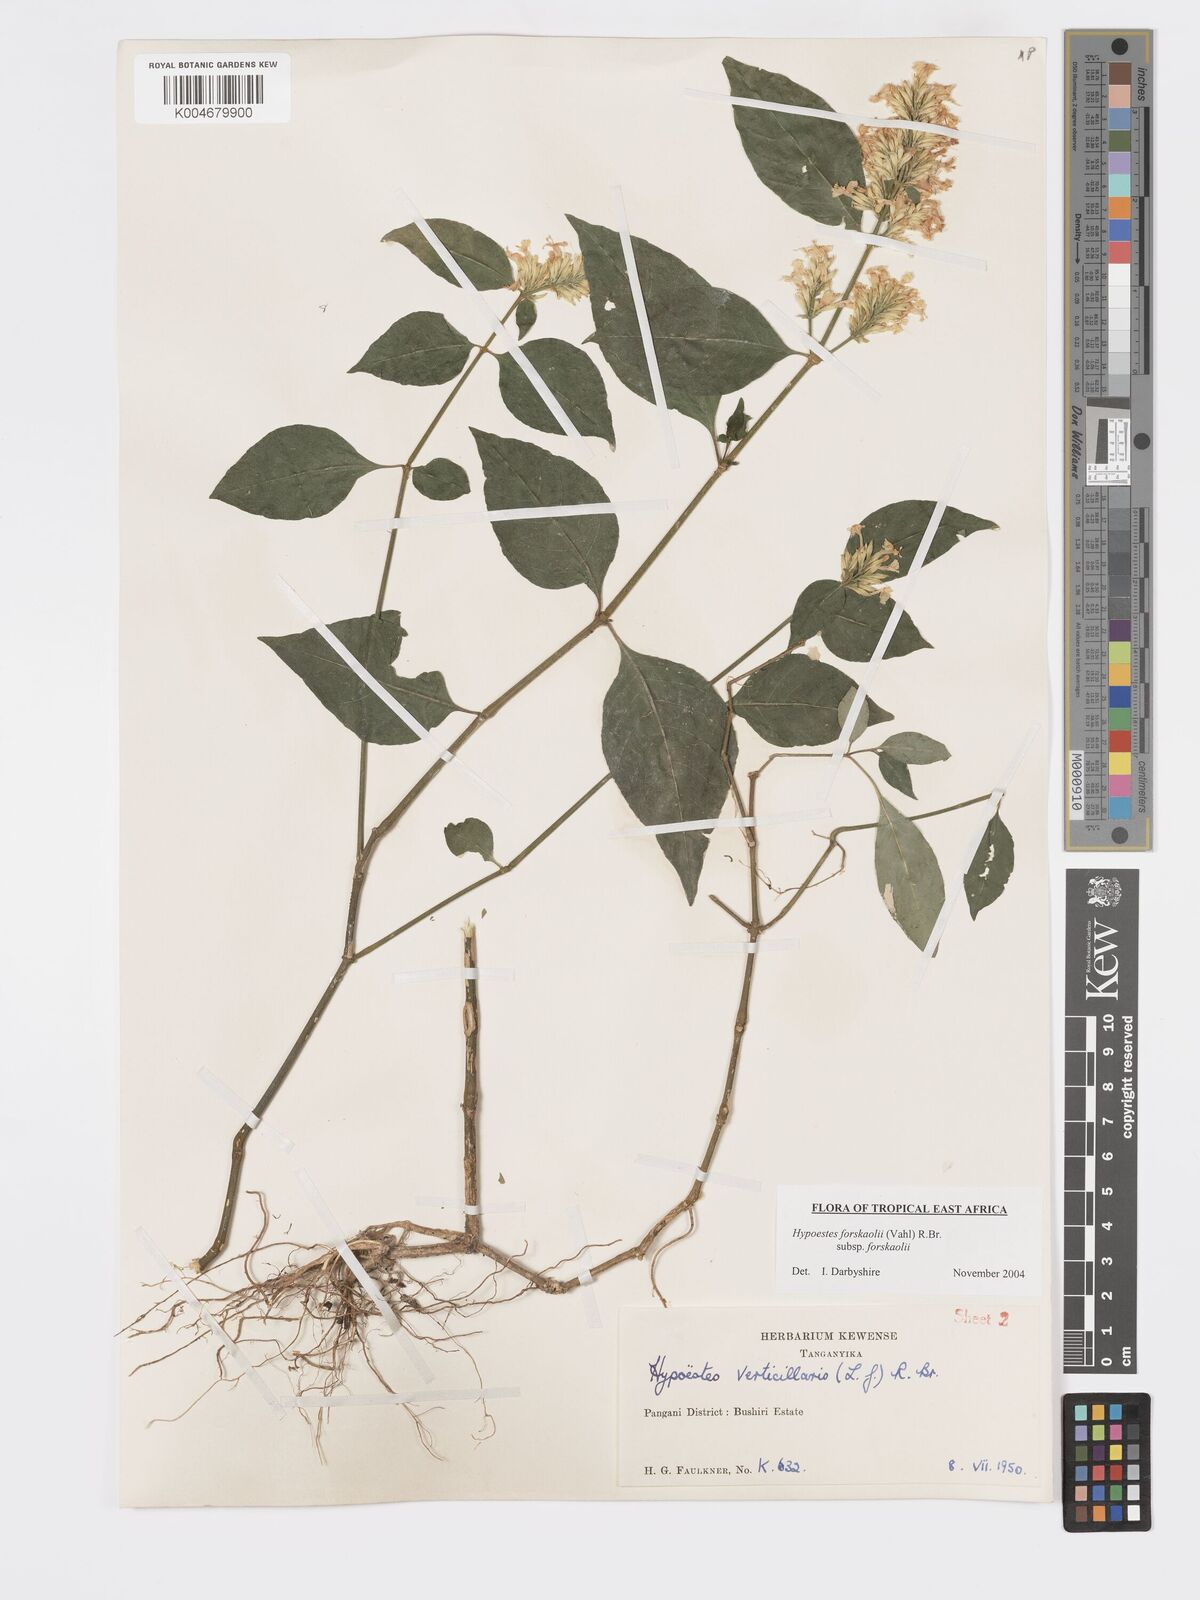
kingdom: Plantae
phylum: Tracheophyta
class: Magnoliopsida
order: Lamiales
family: Acanthaceae
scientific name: Acanthaceae
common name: Acanthaceae
